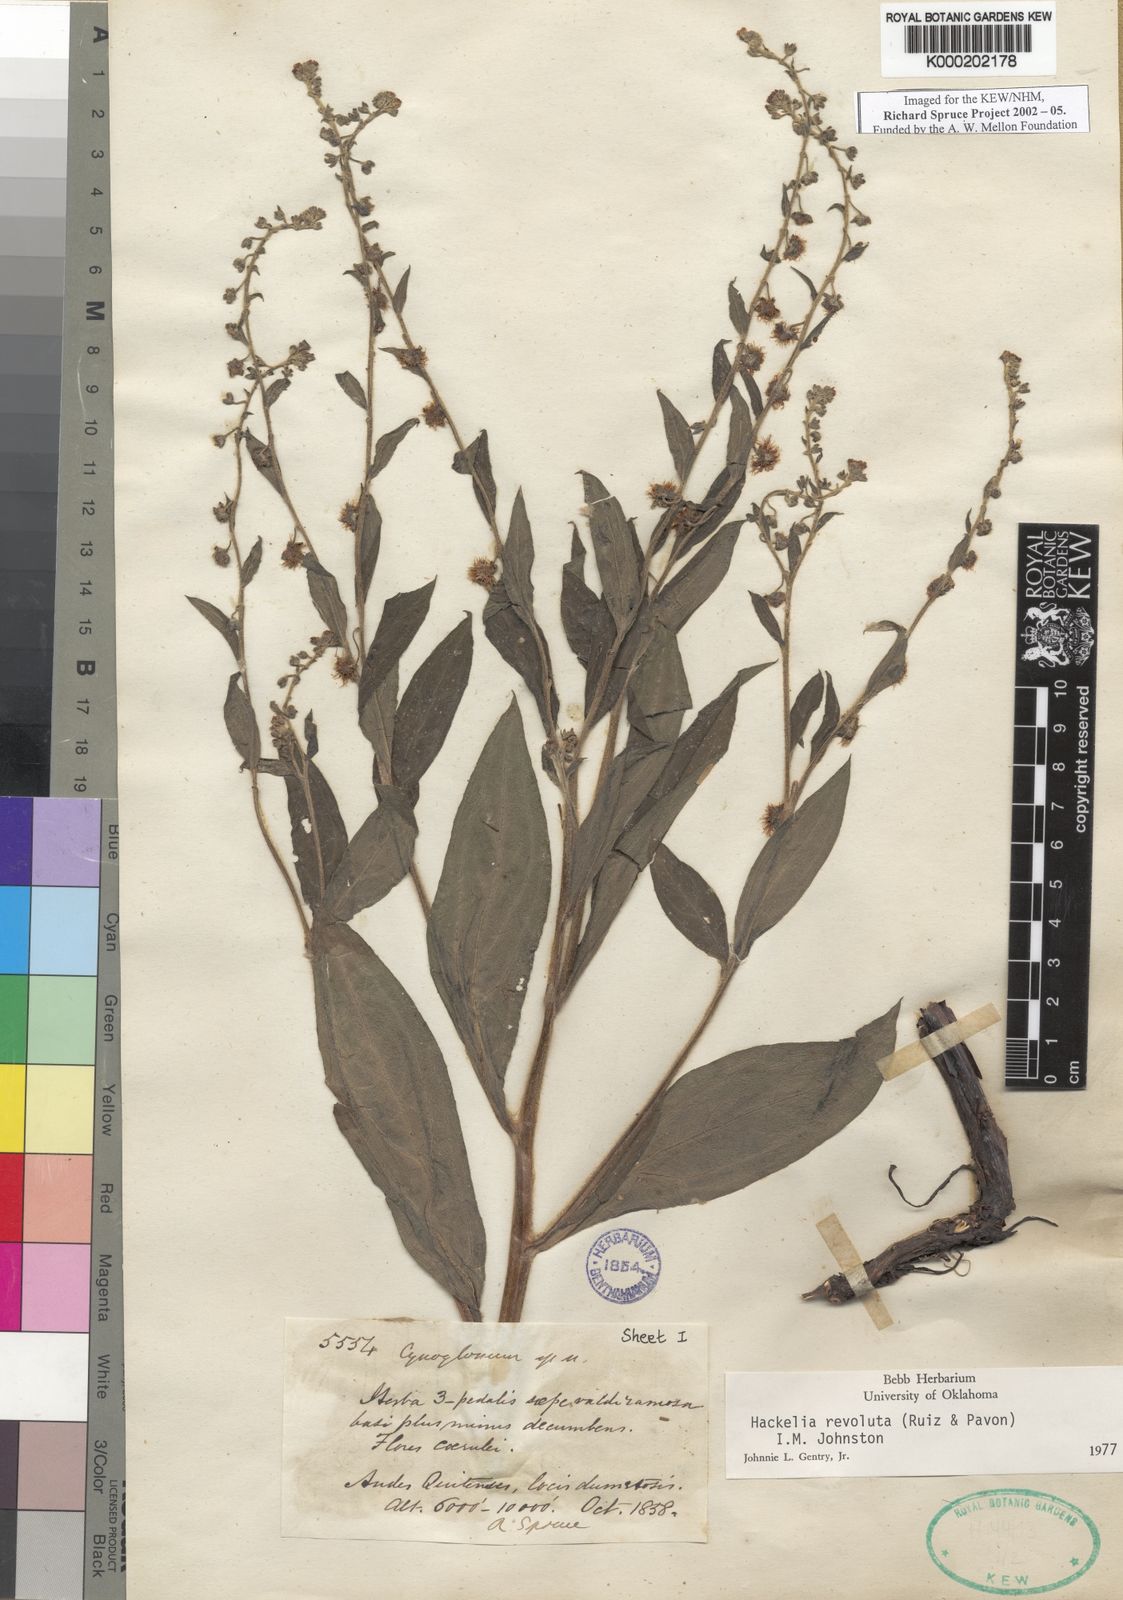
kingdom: Plantae
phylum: Tracheophyta
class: Magnoliopsida
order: Boraginales
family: Boraginaceae
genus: Hackelia
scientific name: Hackelia revoluta
